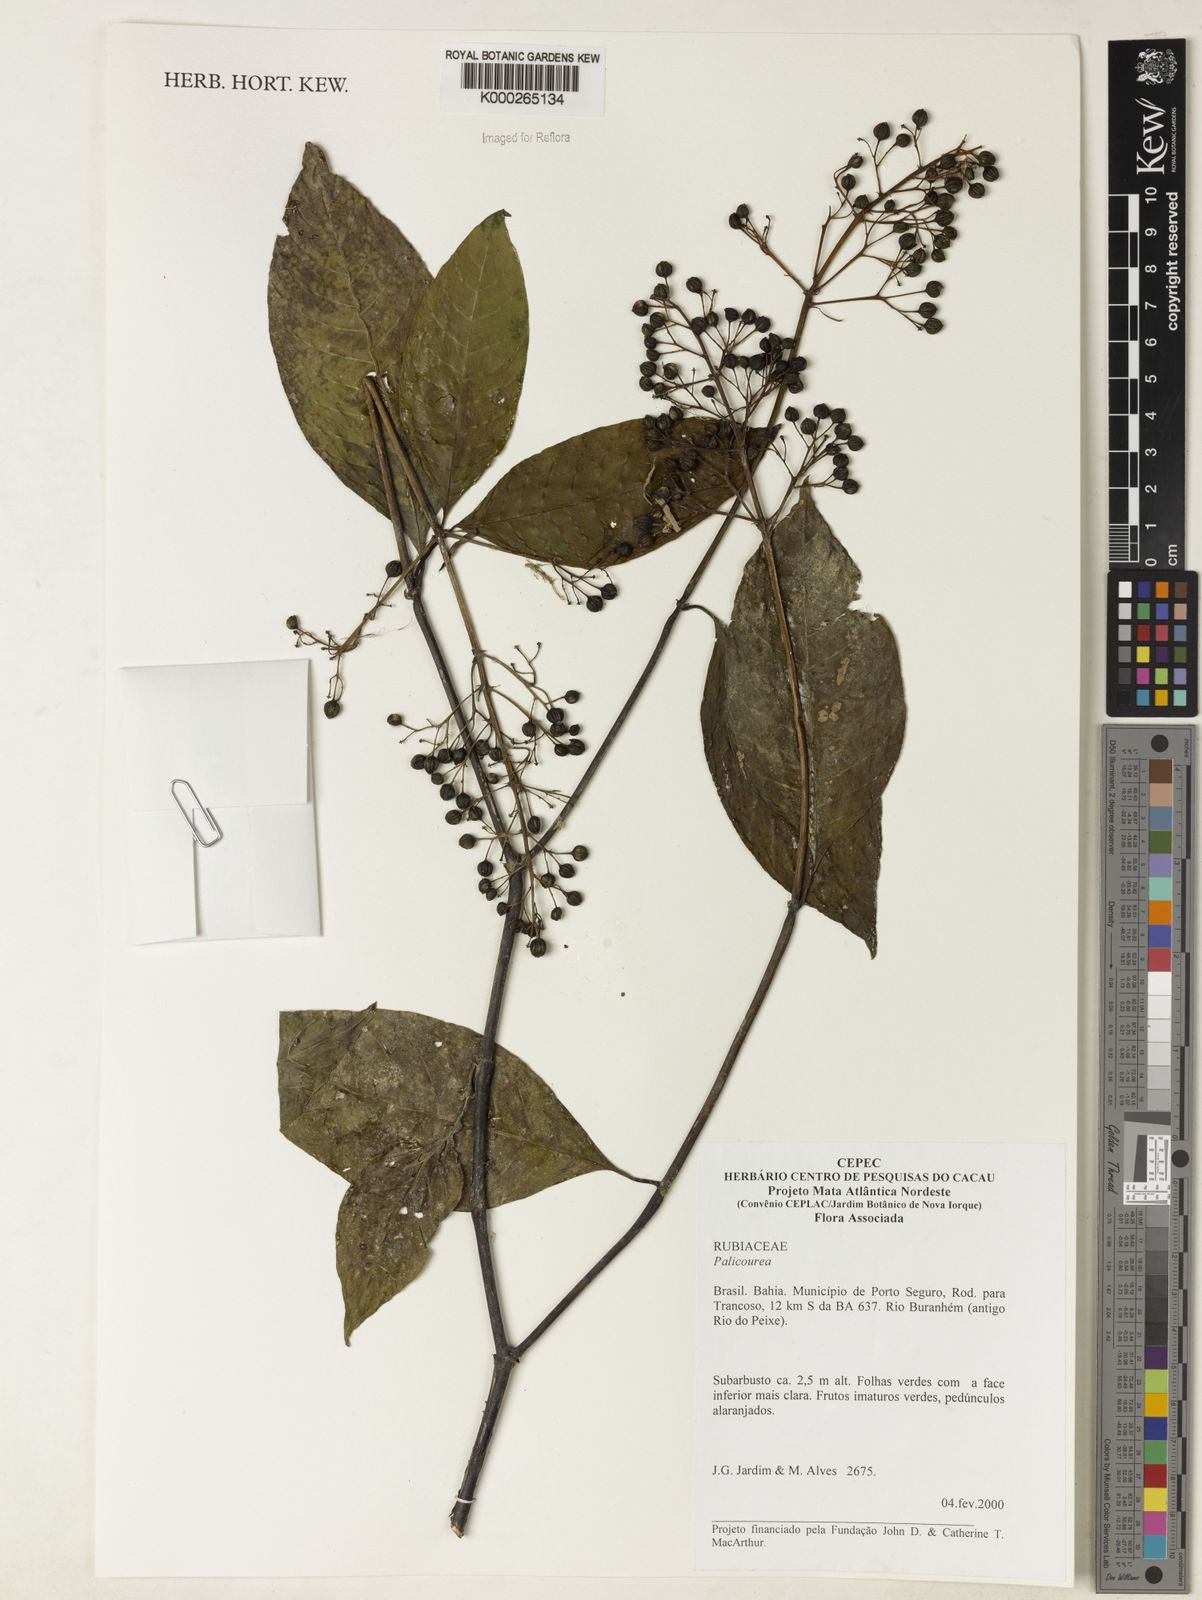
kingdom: Plantae
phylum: Tracheophyta
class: Magnoliopsida
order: Gentianales
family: Rubiaceae
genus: Palicourea
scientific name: Palicourea
